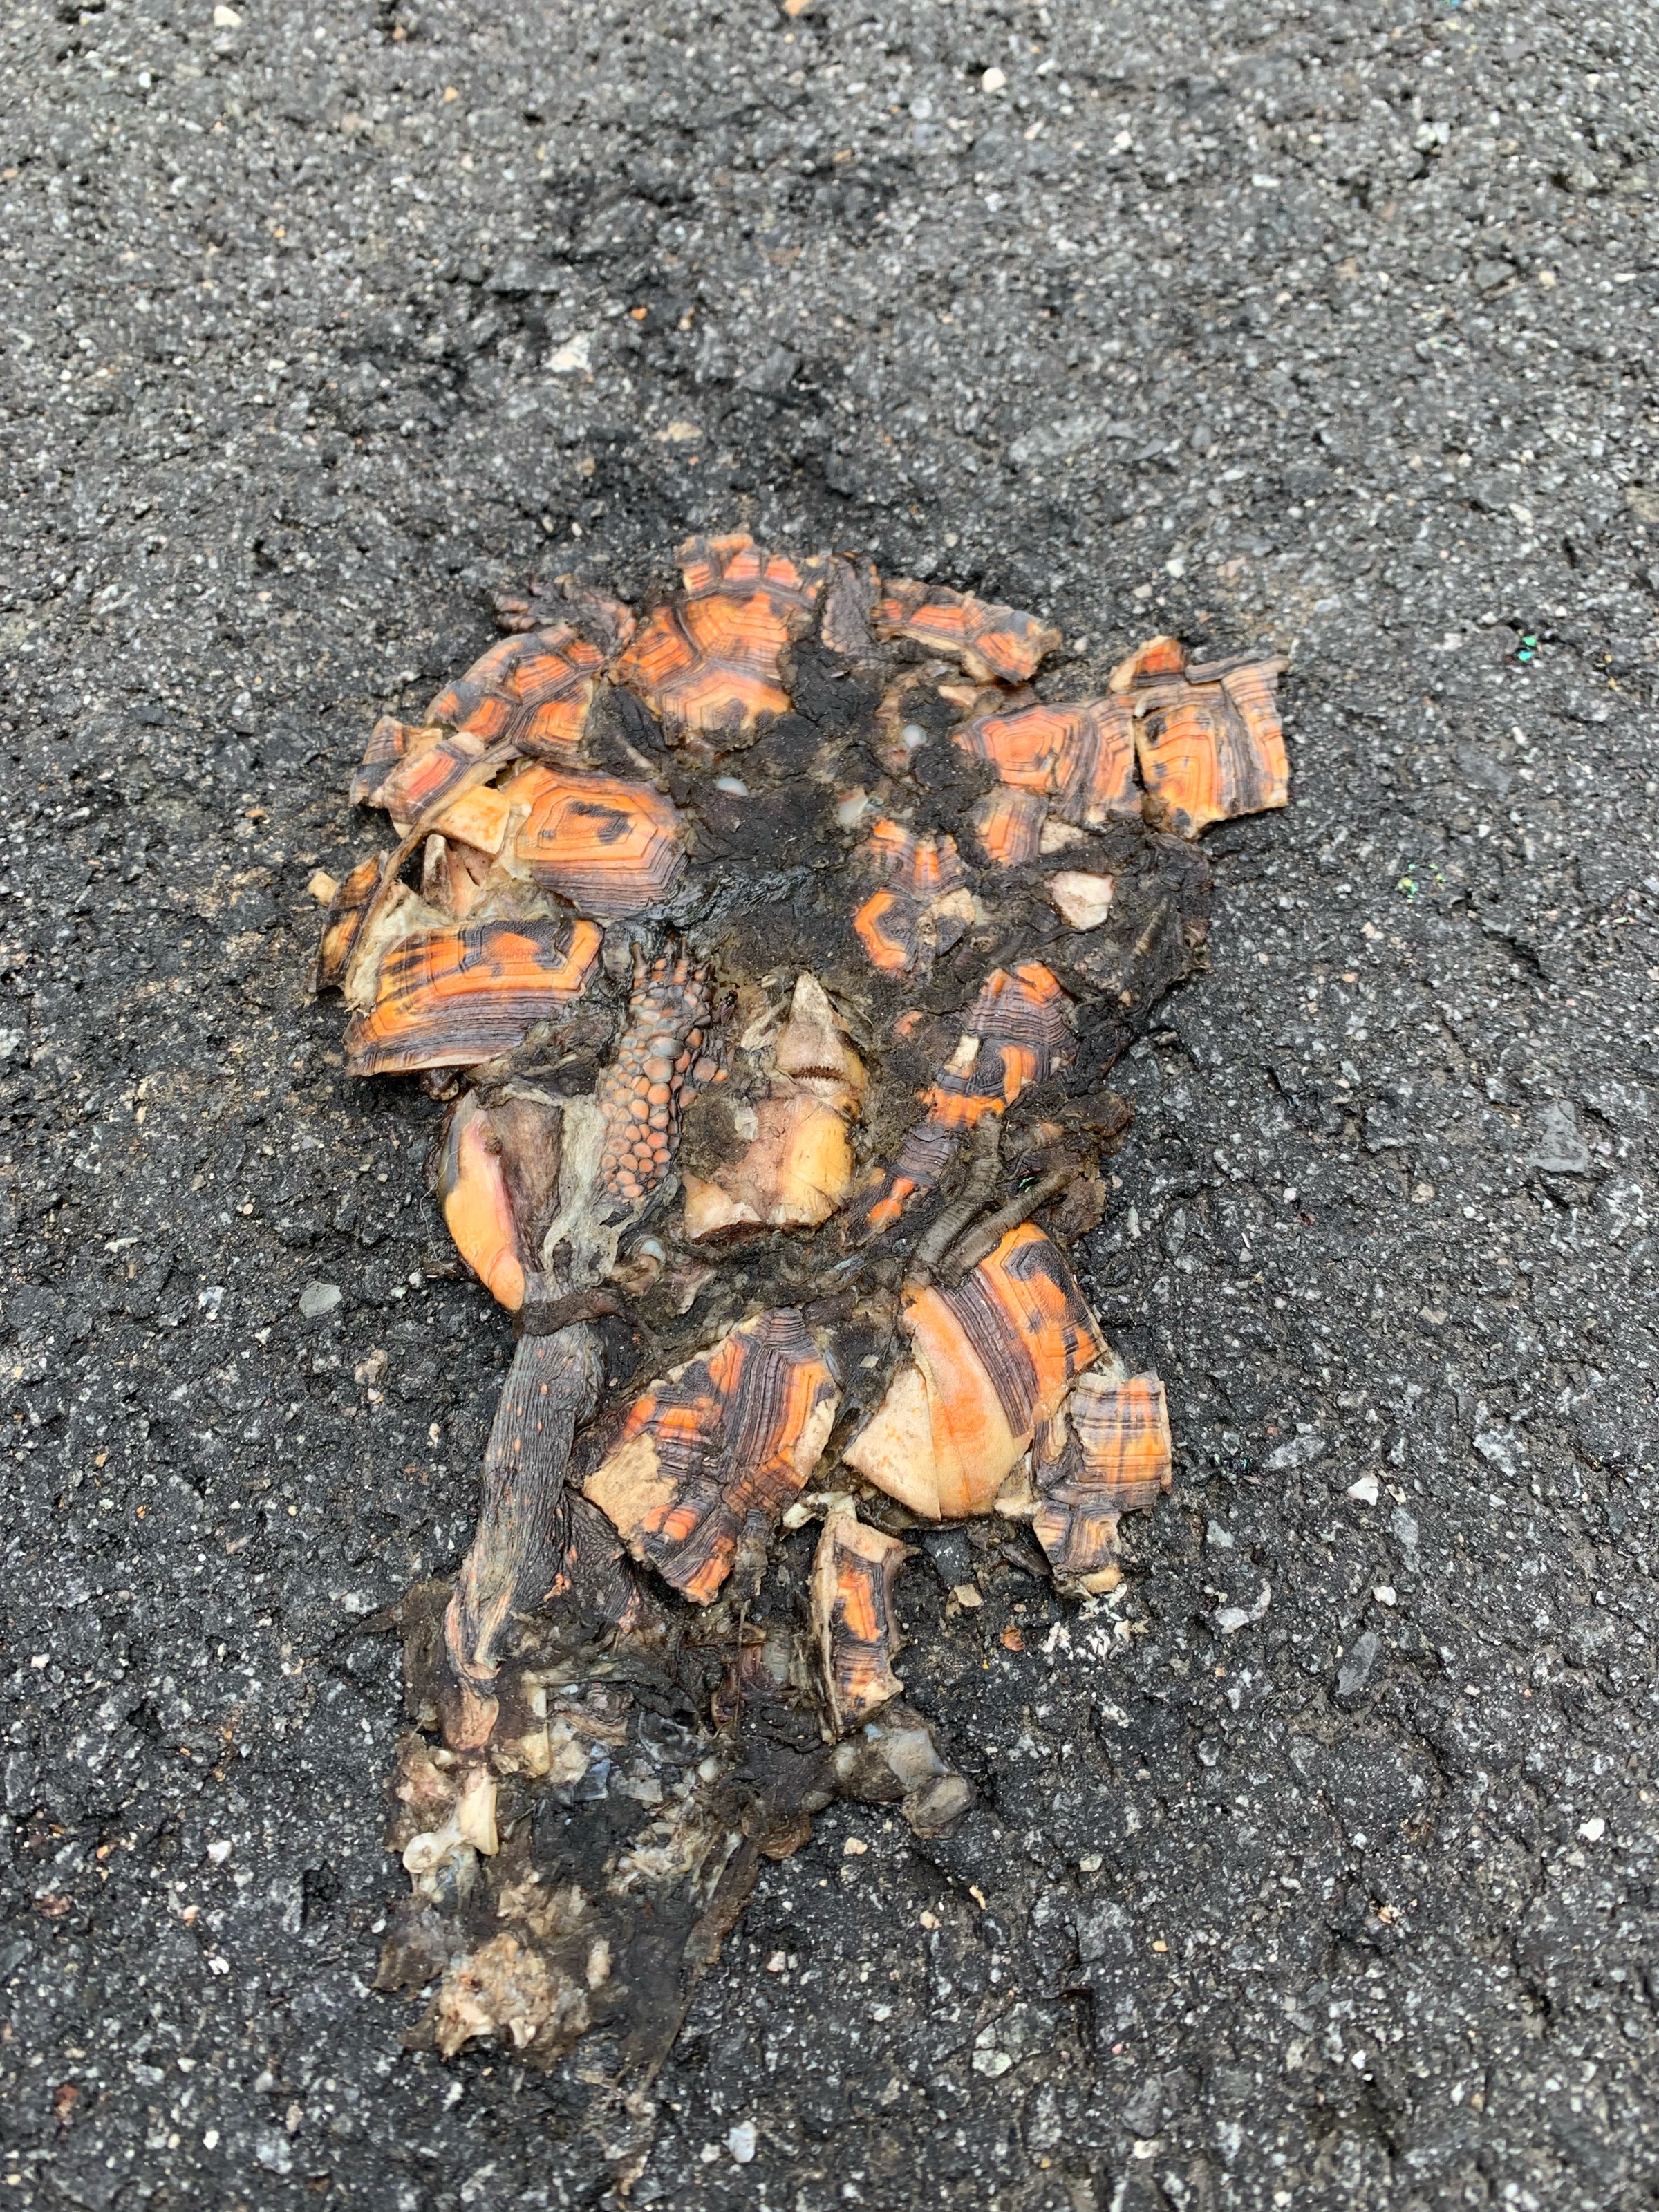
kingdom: Animalia
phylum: Chordata
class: Testudines
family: Emydidae
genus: Terrapene
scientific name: Terrapene carolina
